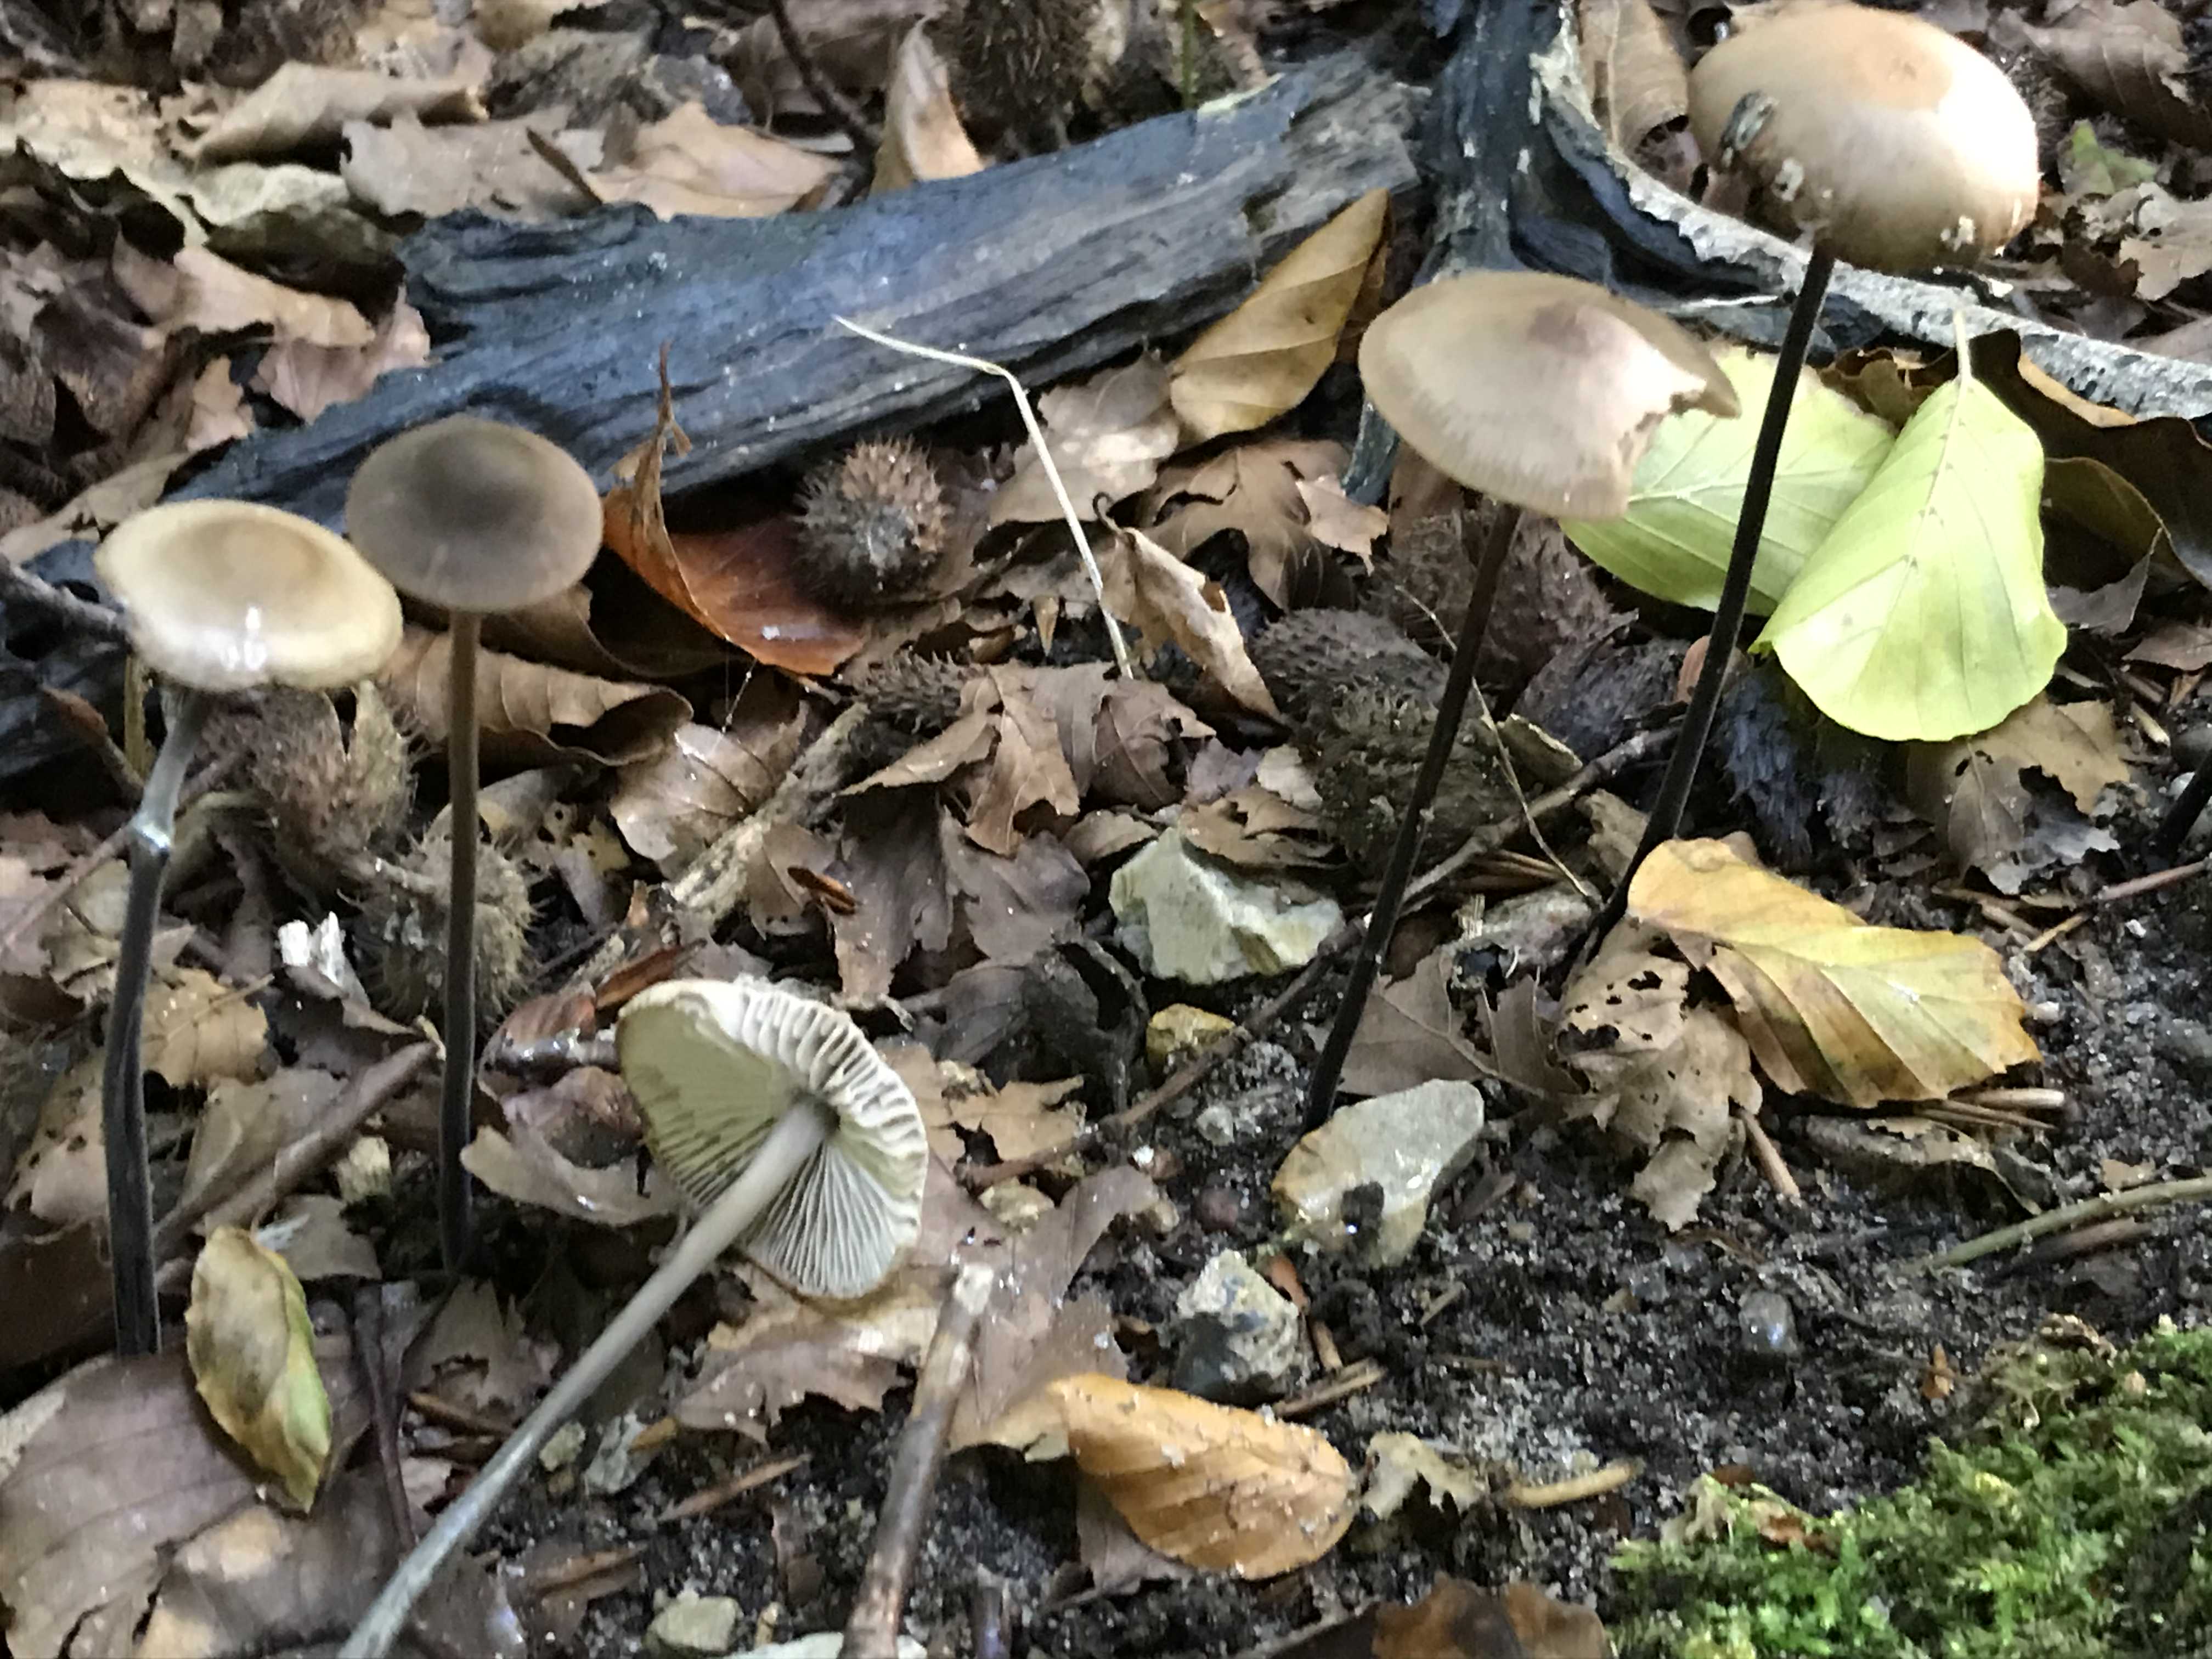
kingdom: Fungi
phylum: Basidiomycota
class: Agaricomycetes
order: Agaricales
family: Omphalotaceae
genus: Mycetinis
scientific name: Mycetinis alliaceus
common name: stor løghat
